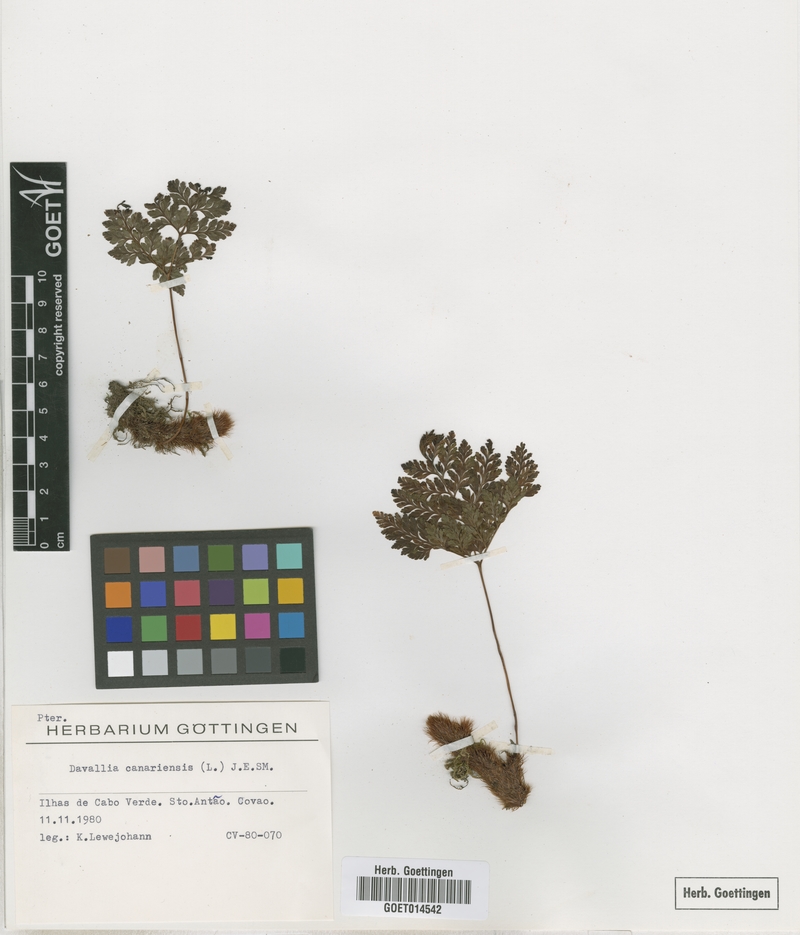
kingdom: Plantae
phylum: Tracheophyta
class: Polypodiopsida
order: Polypodiales
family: Davalliaceae
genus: Davallia
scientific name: Davallia canariensis
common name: Hare's-foot fern
